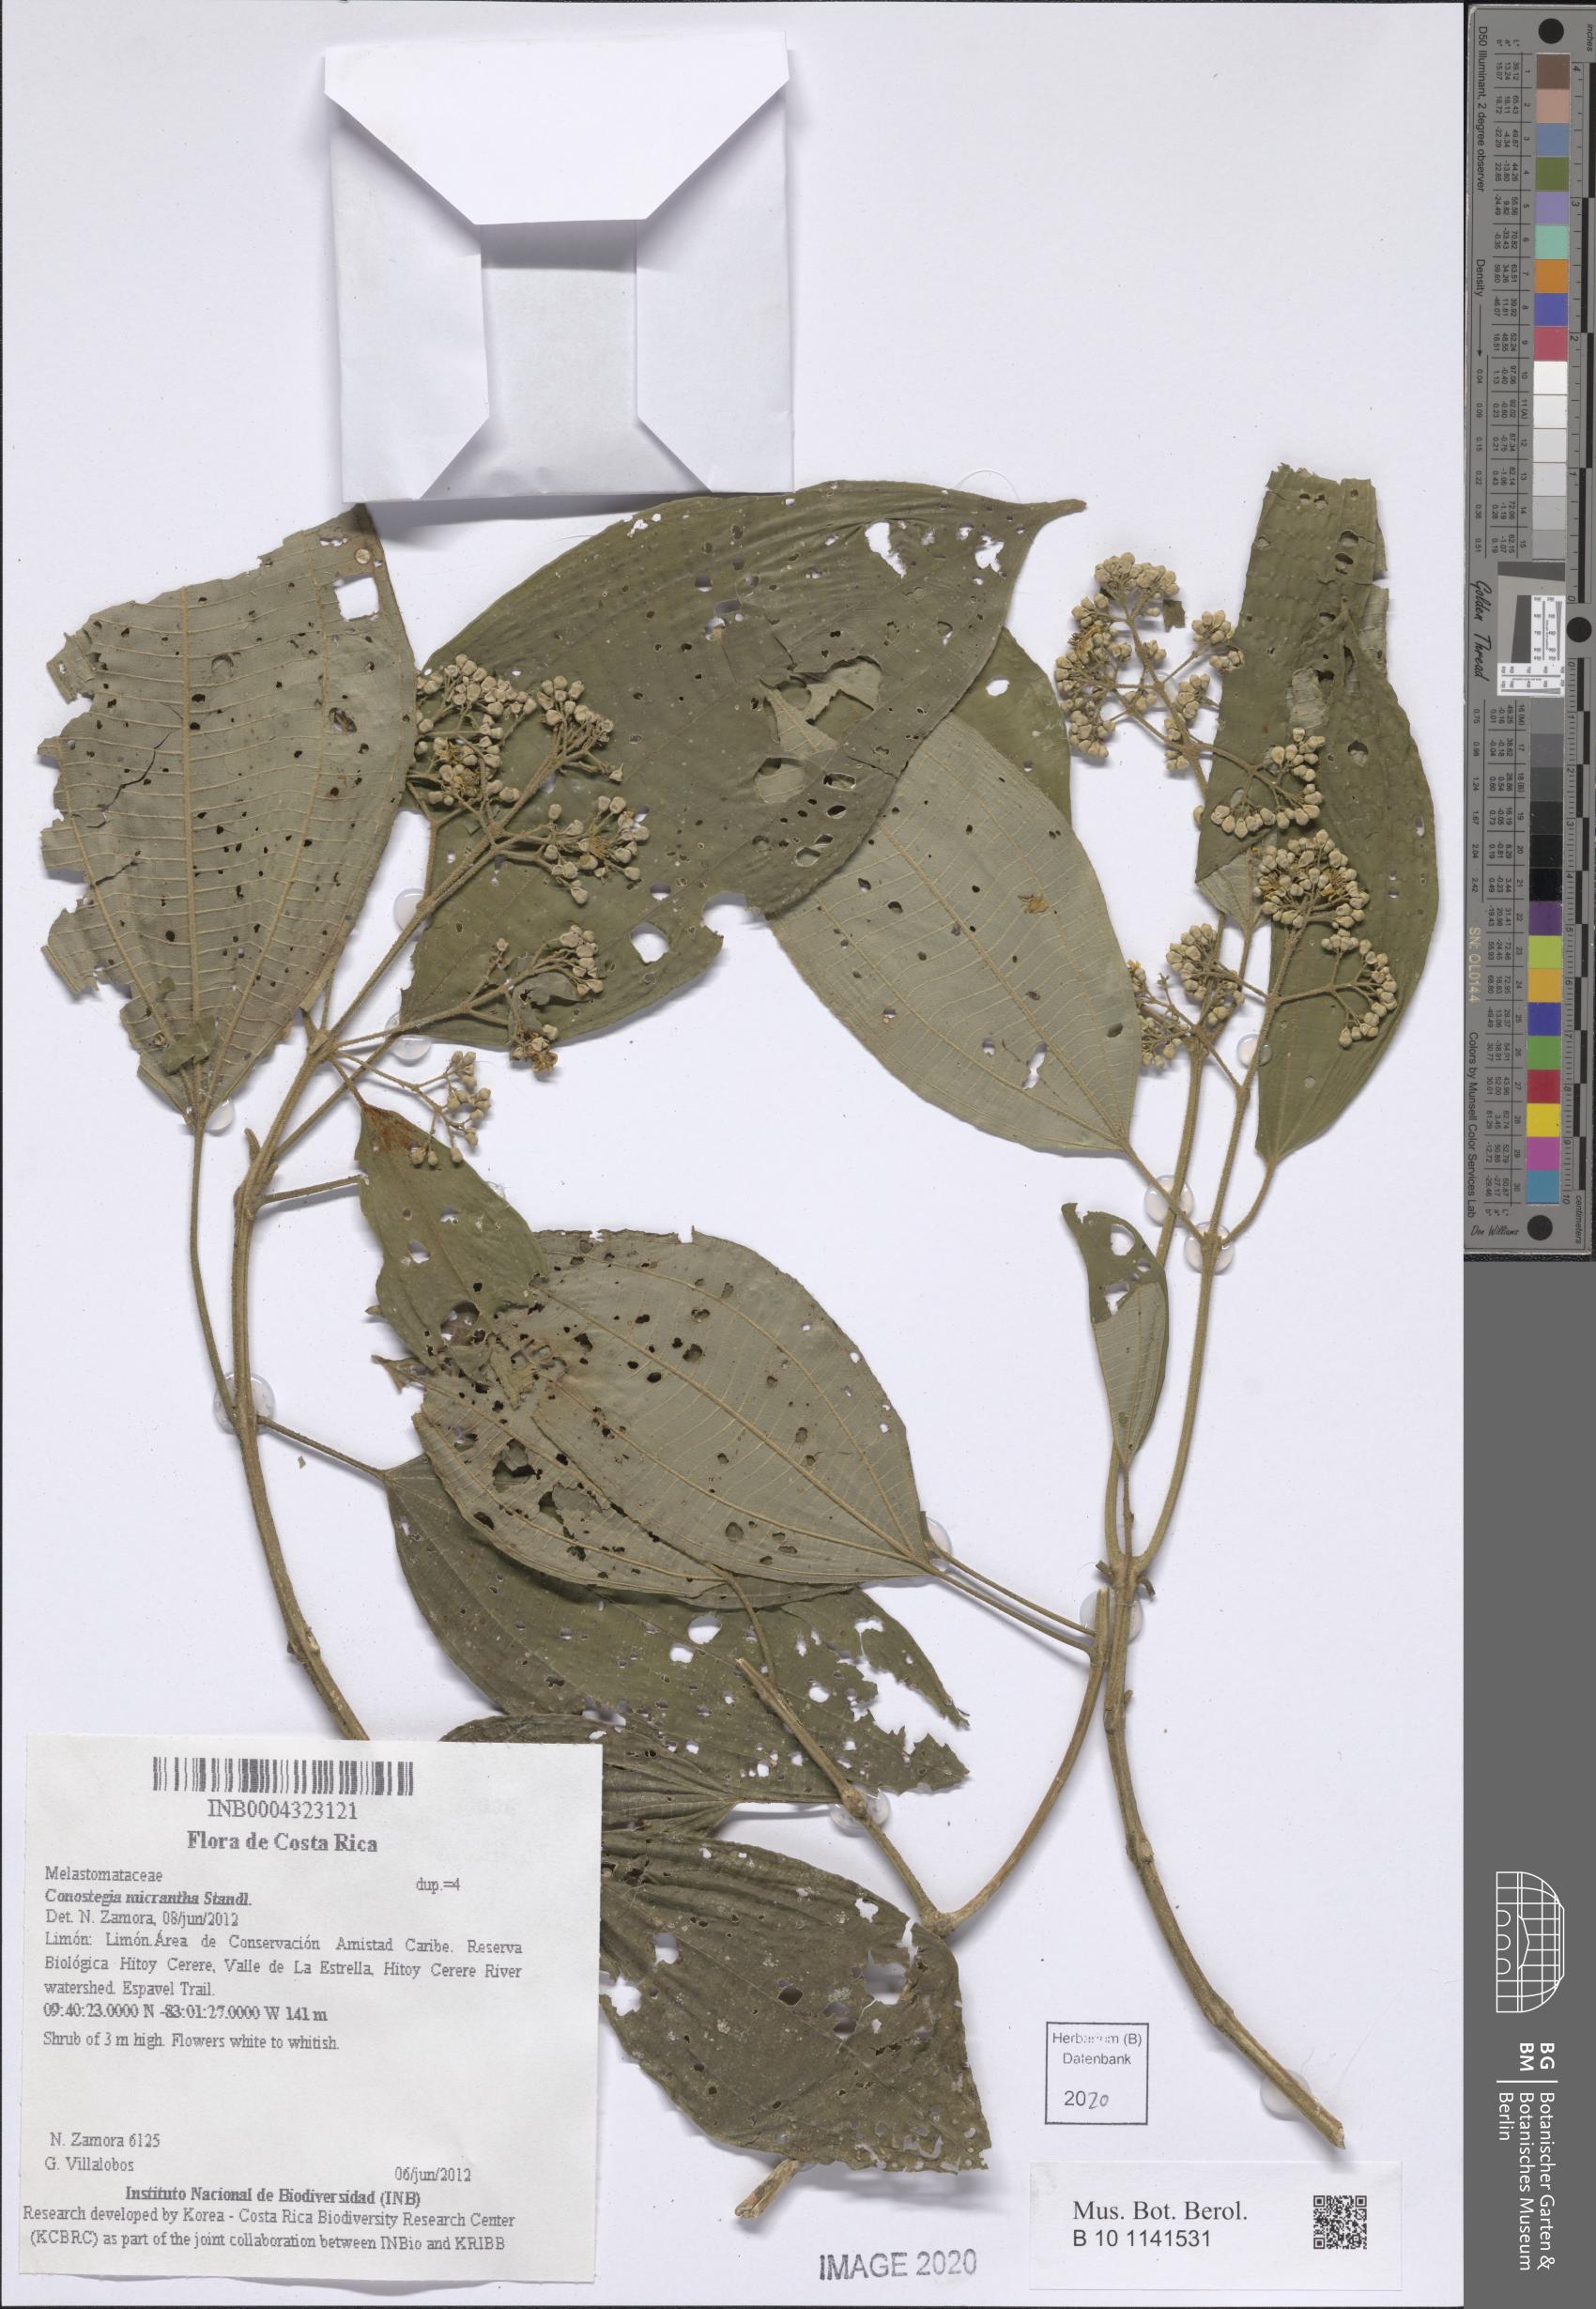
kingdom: Plantae
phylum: Tracheophyta
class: Magnoliopsida
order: Myrtales
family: Melastomataceae
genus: Miconia
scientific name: Miconia conomicrantha
